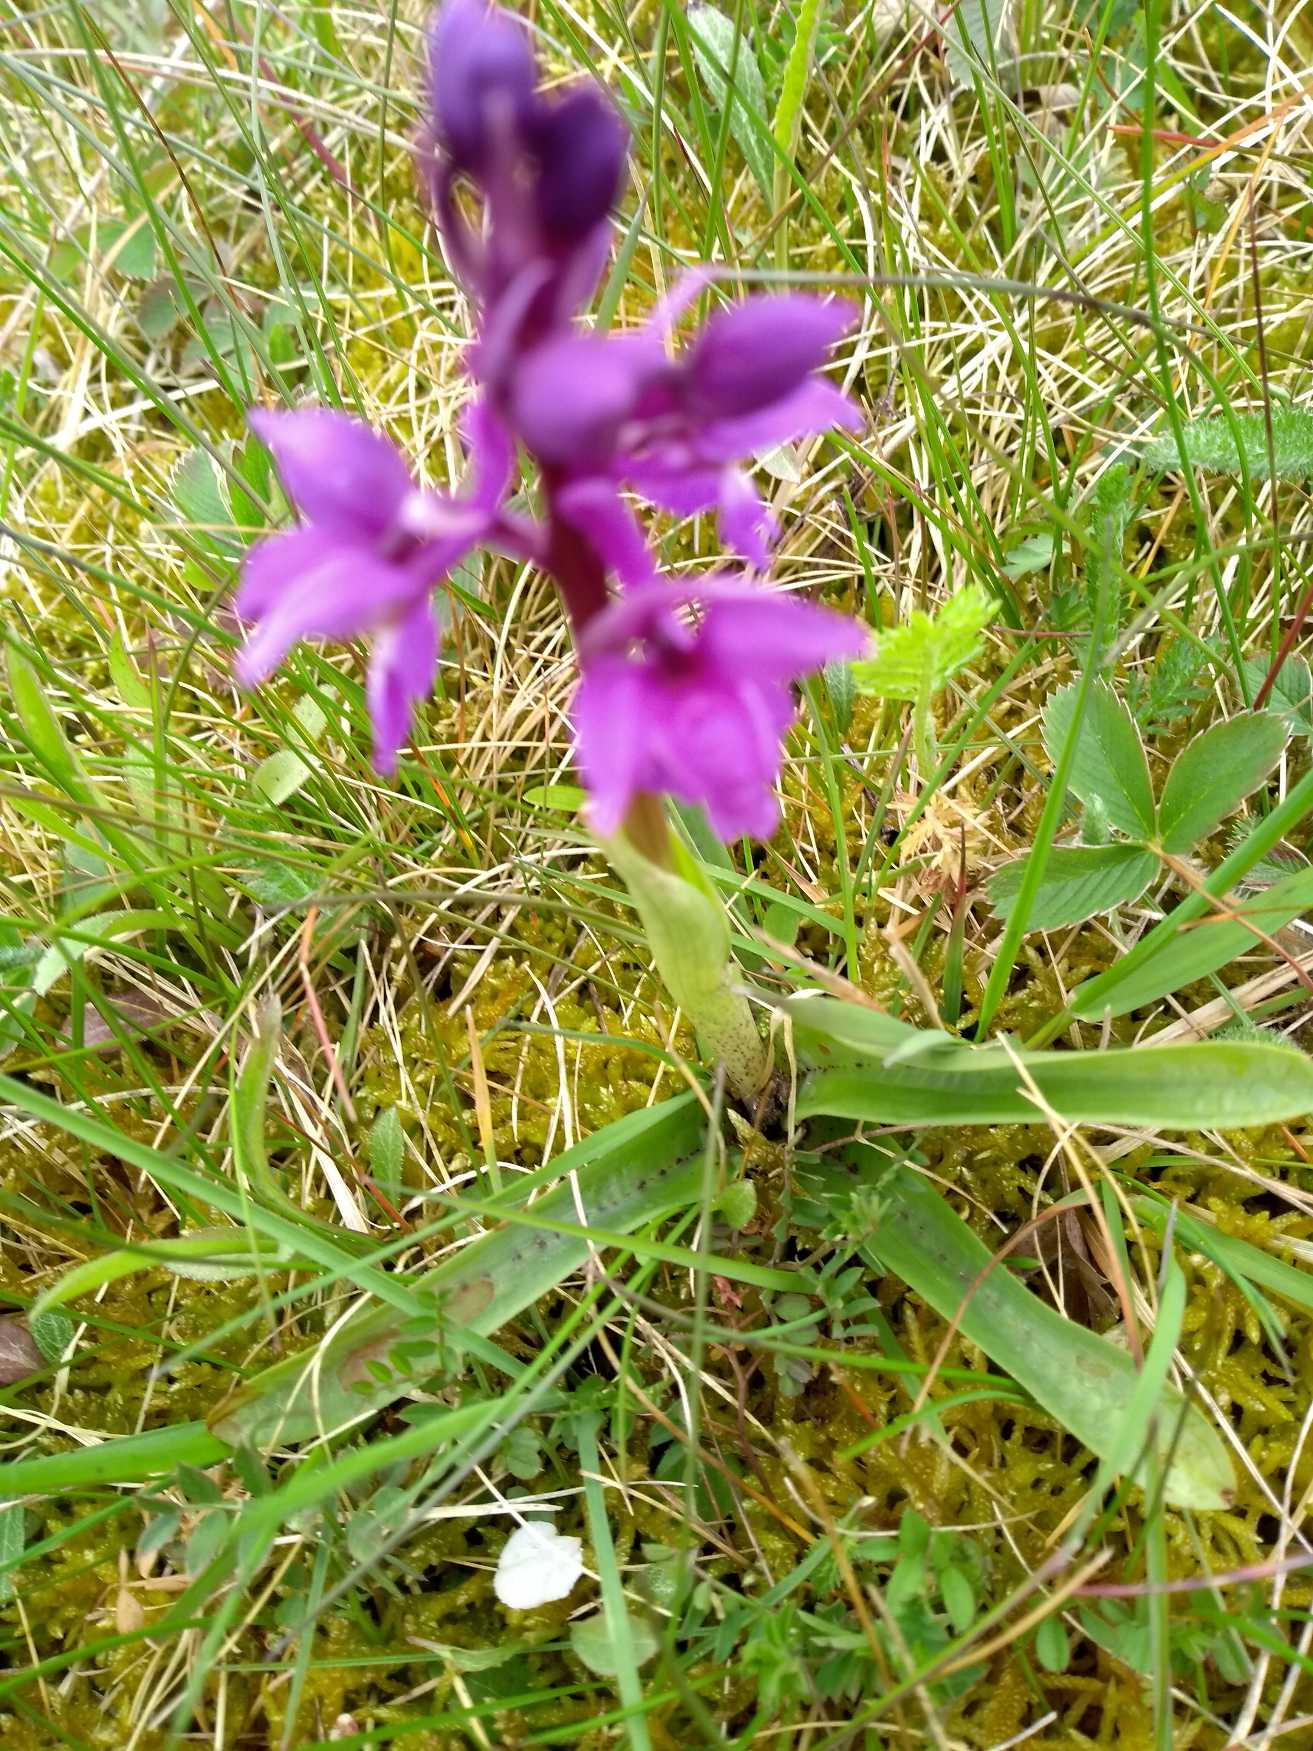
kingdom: Plantae
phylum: Tracheophyta
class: Liliopsida
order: Asparagales
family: Orchidaceae
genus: Orchis
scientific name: Orchis mascula
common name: Tyndakset gøgeurt
